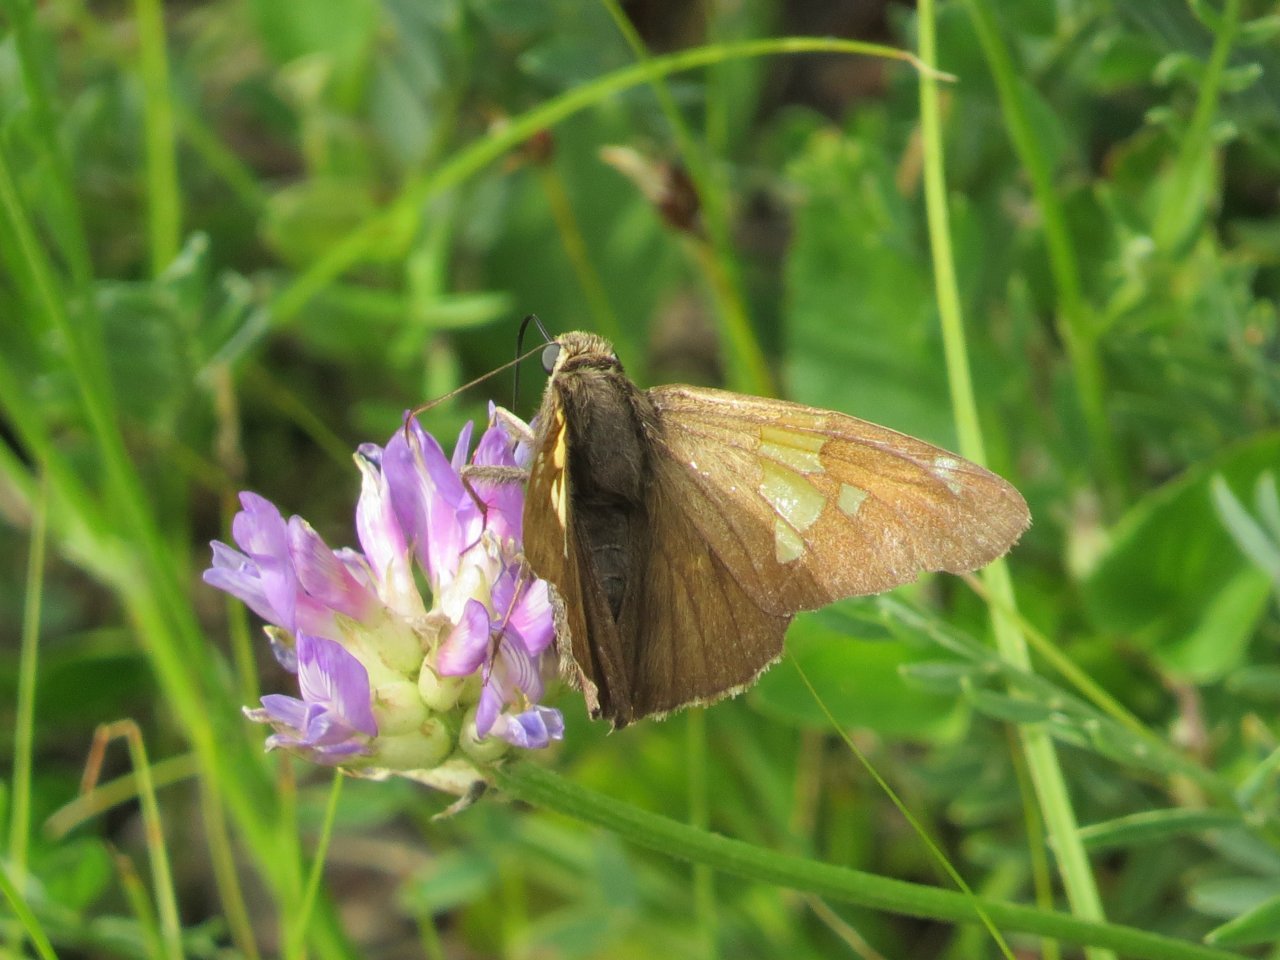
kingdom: Animalia
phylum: Arthropoda
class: Insecta
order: Lepidoptera
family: Hesperiidae
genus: Epargyreus
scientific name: Epargyreus clarus
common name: Silver-spotted Skipper
